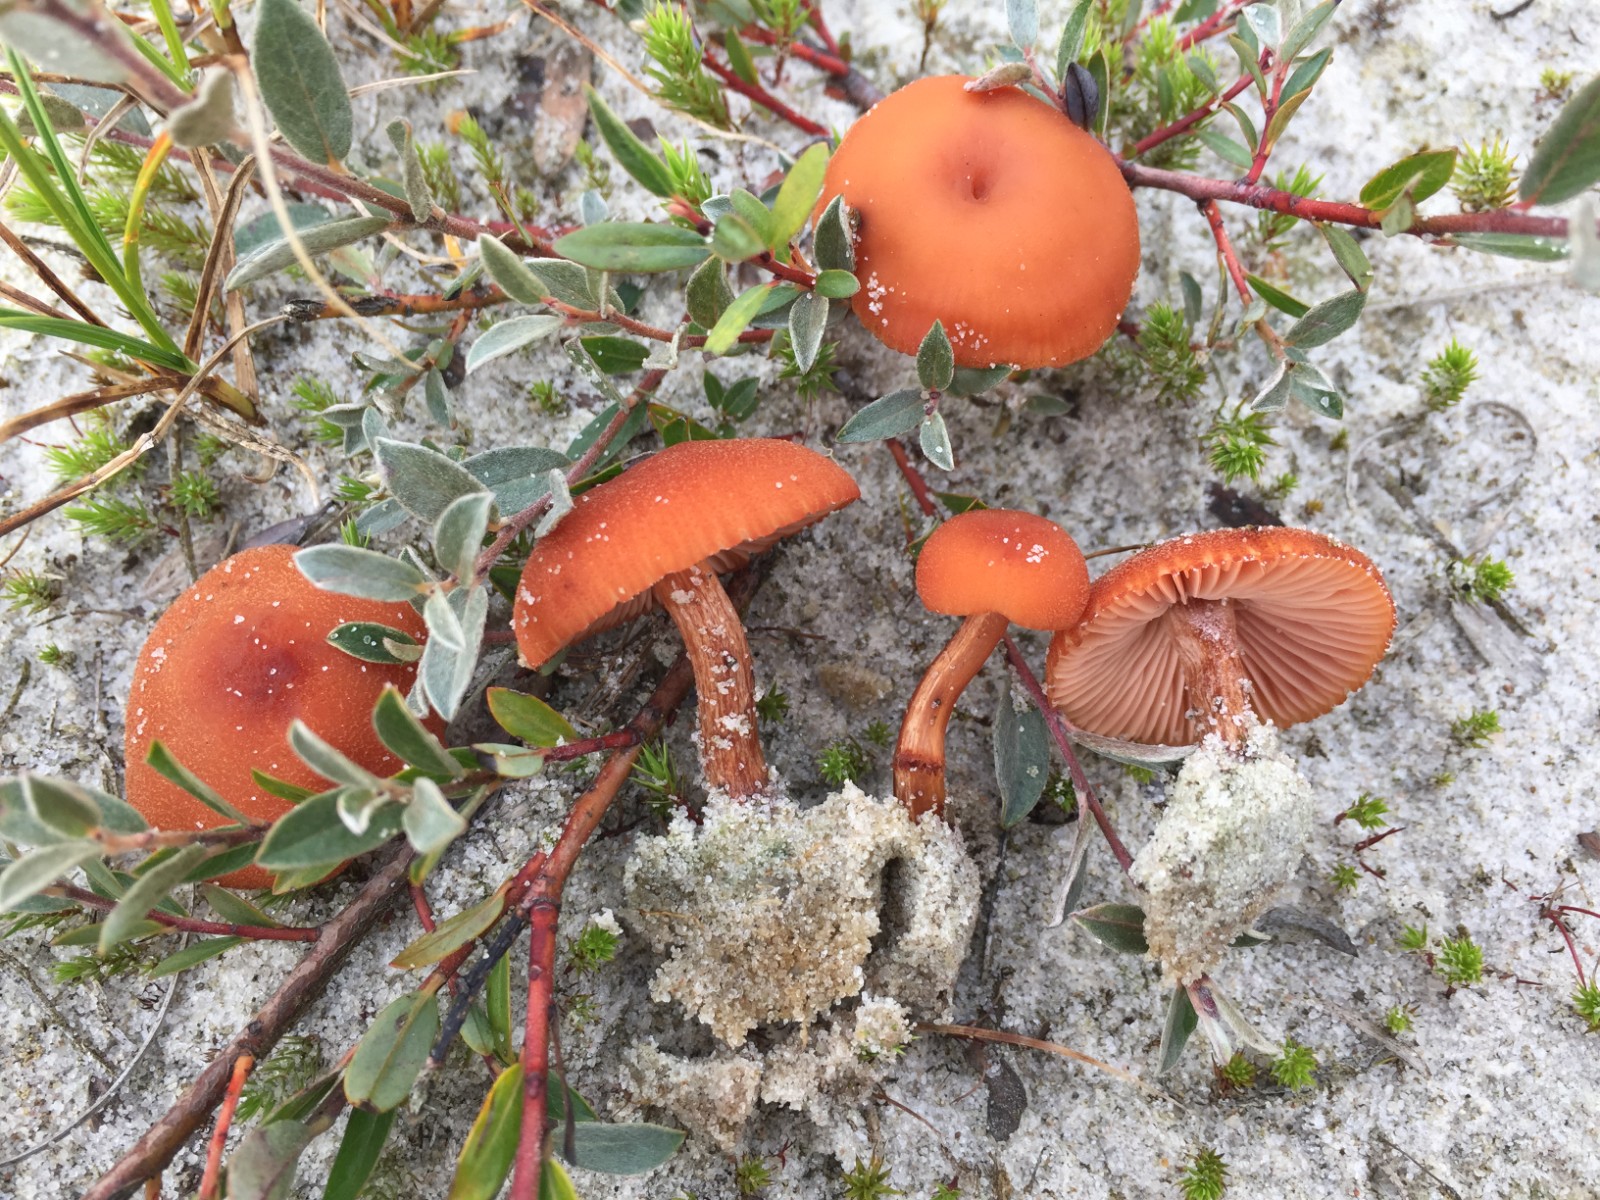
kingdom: Fungi
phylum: Basidiomycota
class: Agaricomycetes
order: Agaricales
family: Hydnangiaceae
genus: Laccaria
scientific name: Laccaria proxima
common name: stor ametysthat
